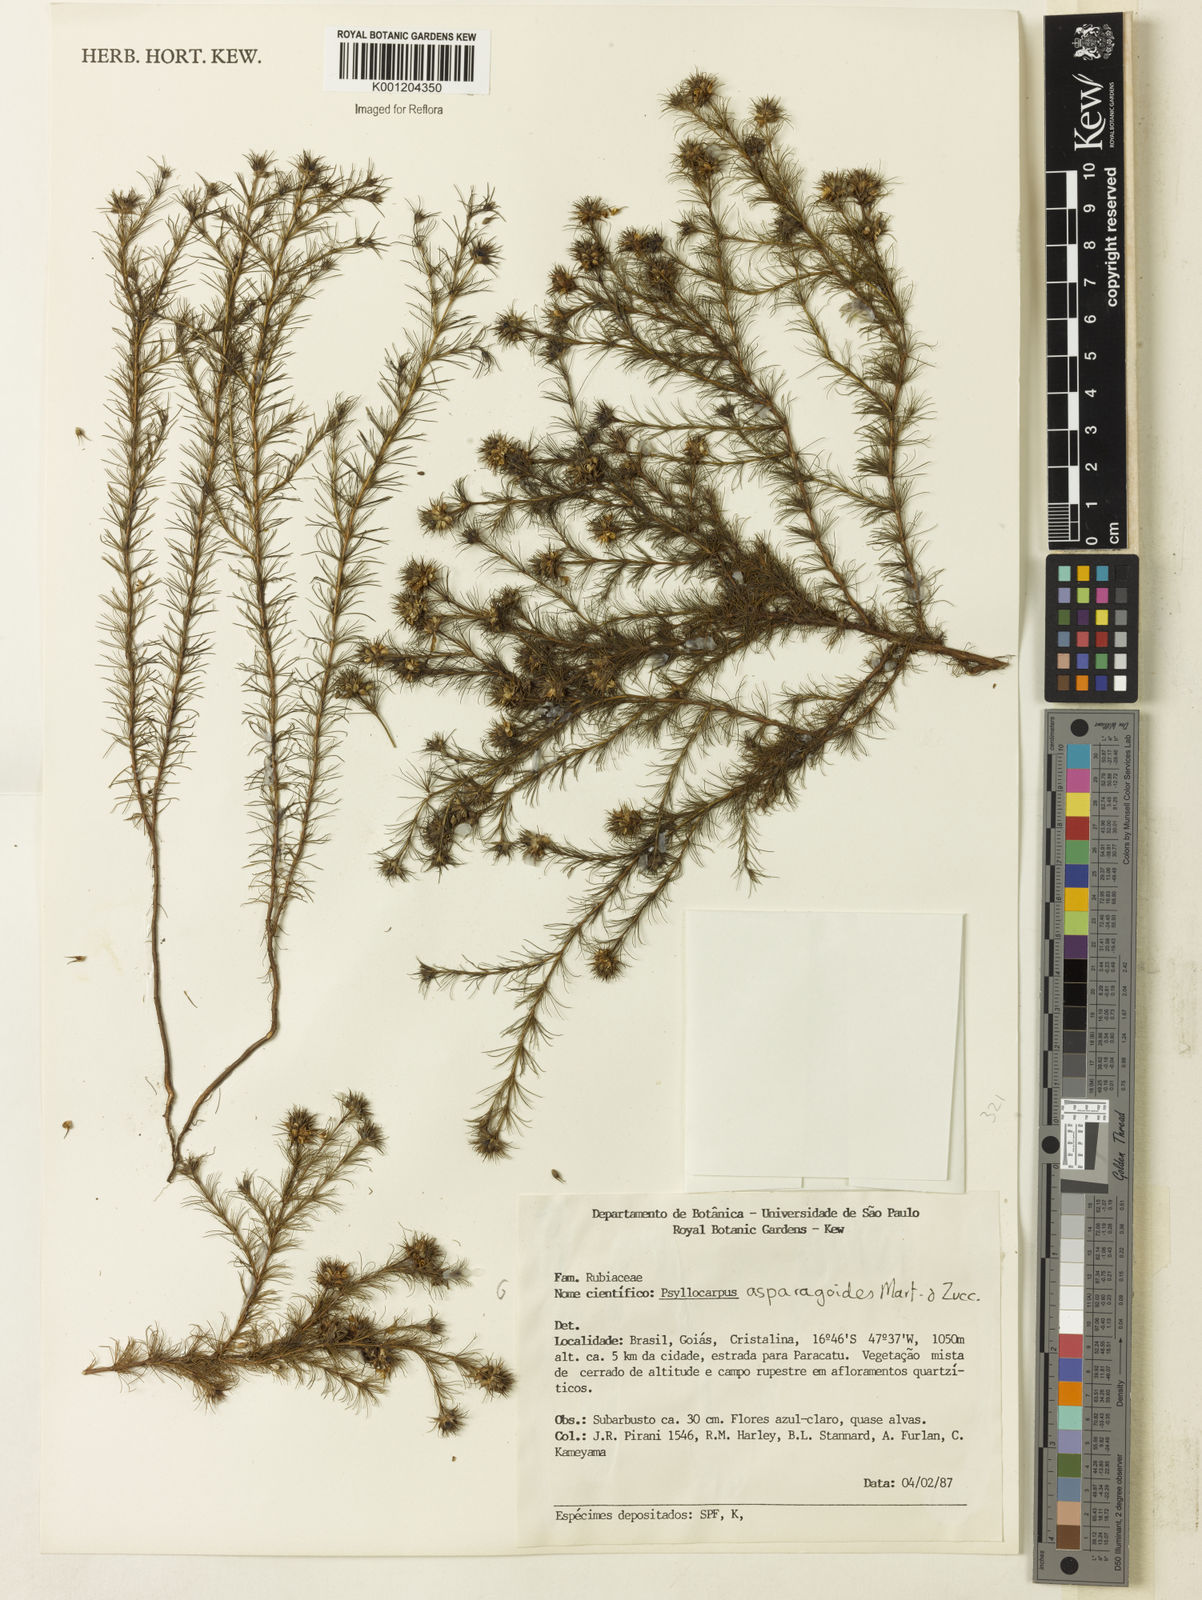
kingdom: Plantae
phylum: Tracheophyta
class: Magnoliopsida
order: Gentianales
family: Rubiaceae
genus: Psyllocarpus
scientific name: Psyllocarpus asparagoides
